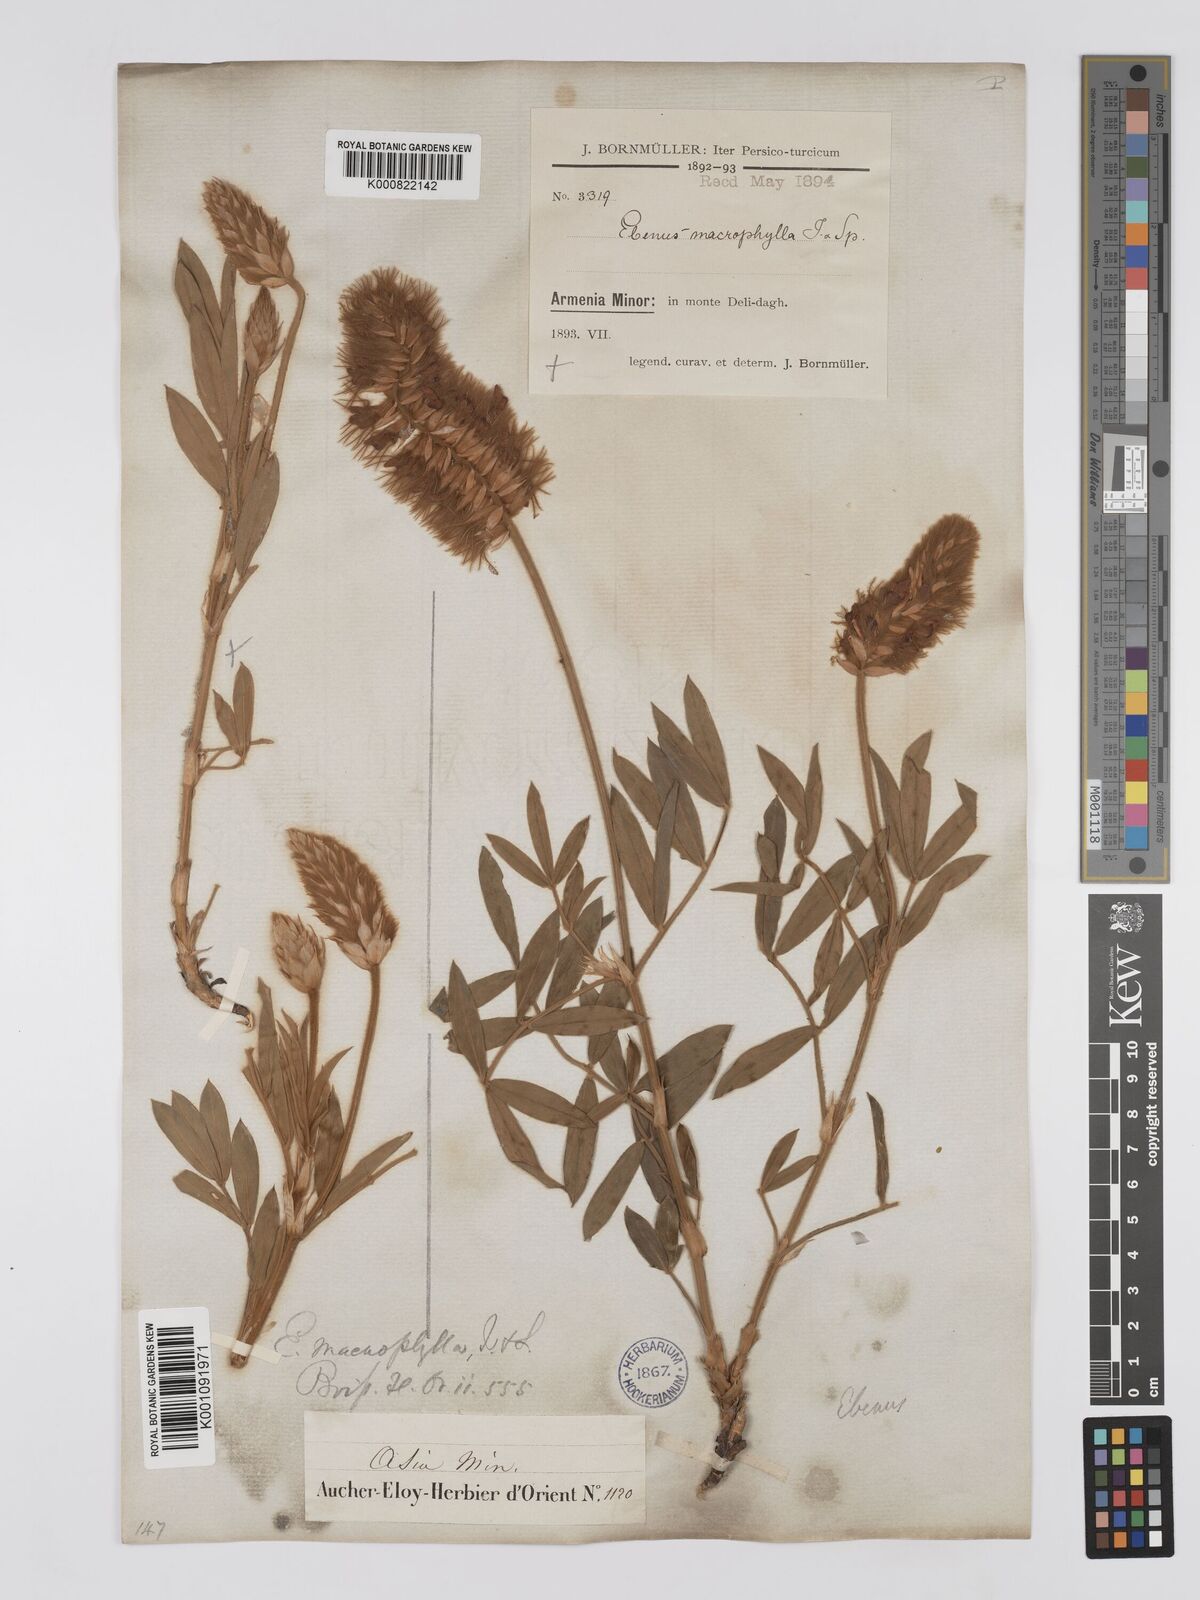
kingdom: Plantae
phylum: Tracheophyta
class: Magnoliopsida
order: Fabales
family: Fabaceae
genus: Ebenus
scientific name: Ebenus macrophylla
